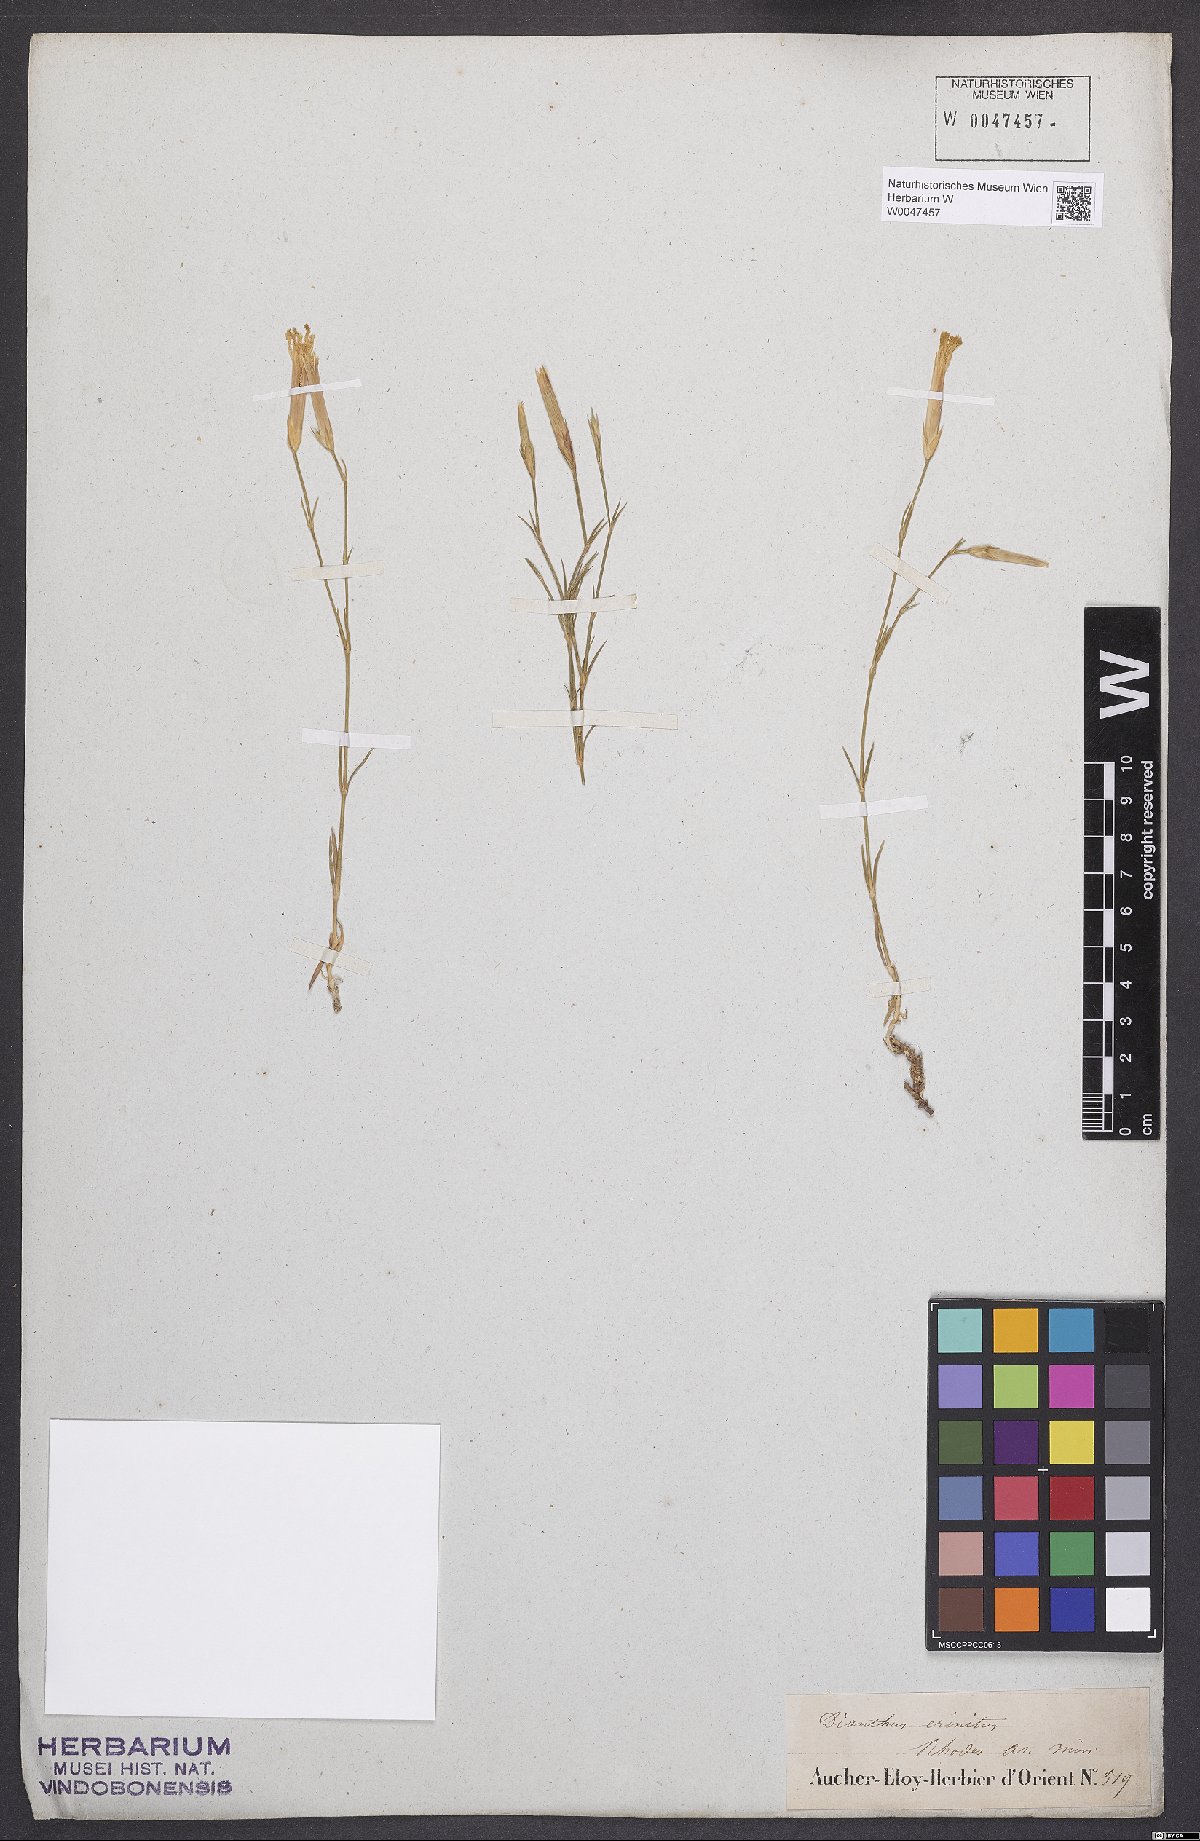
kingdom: Plantae
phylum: Tracheophyta
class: Magnoliopsida
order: Caryophyllales
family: Caryophyllaceae
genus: Dianthus
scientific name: Dianthus crinitus
